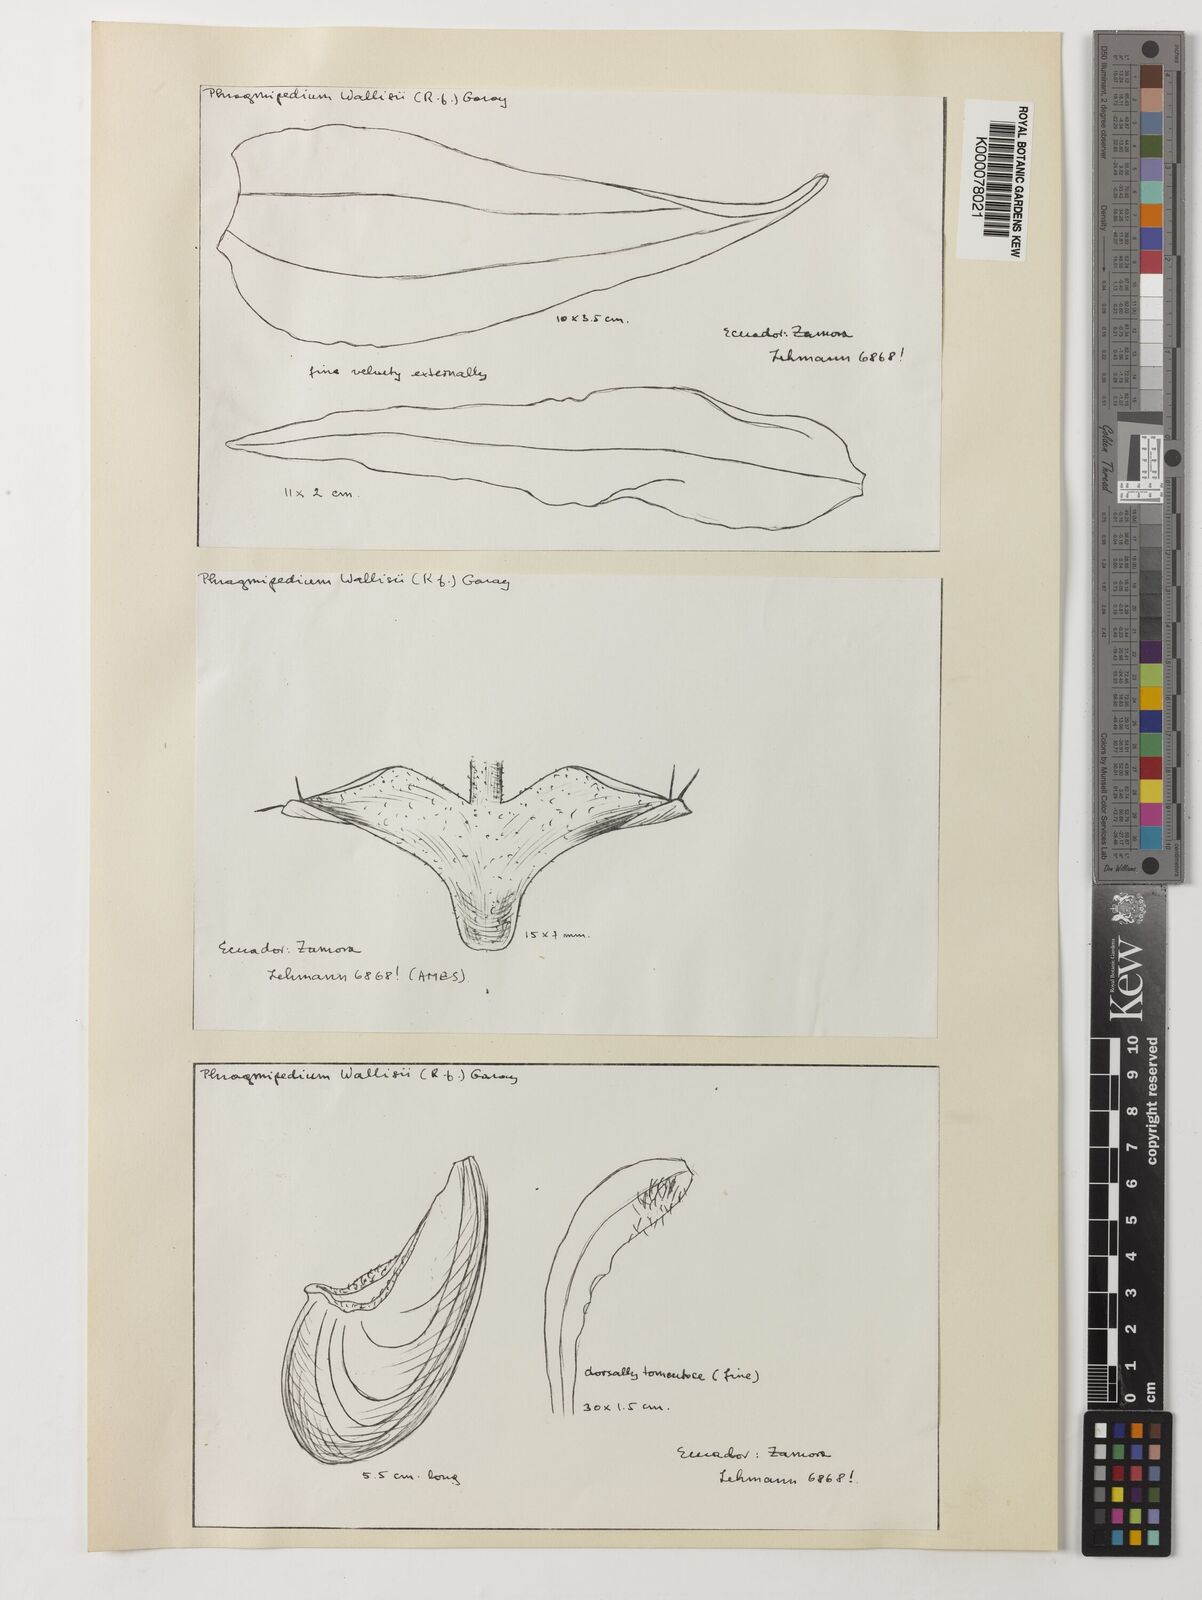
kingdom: Plantae
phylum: Tracheophyta
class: Liliopsida
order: Asparagales
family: Orchidaceae
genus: Phragmipedium
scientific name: Phragmipedium warszewiczianum
